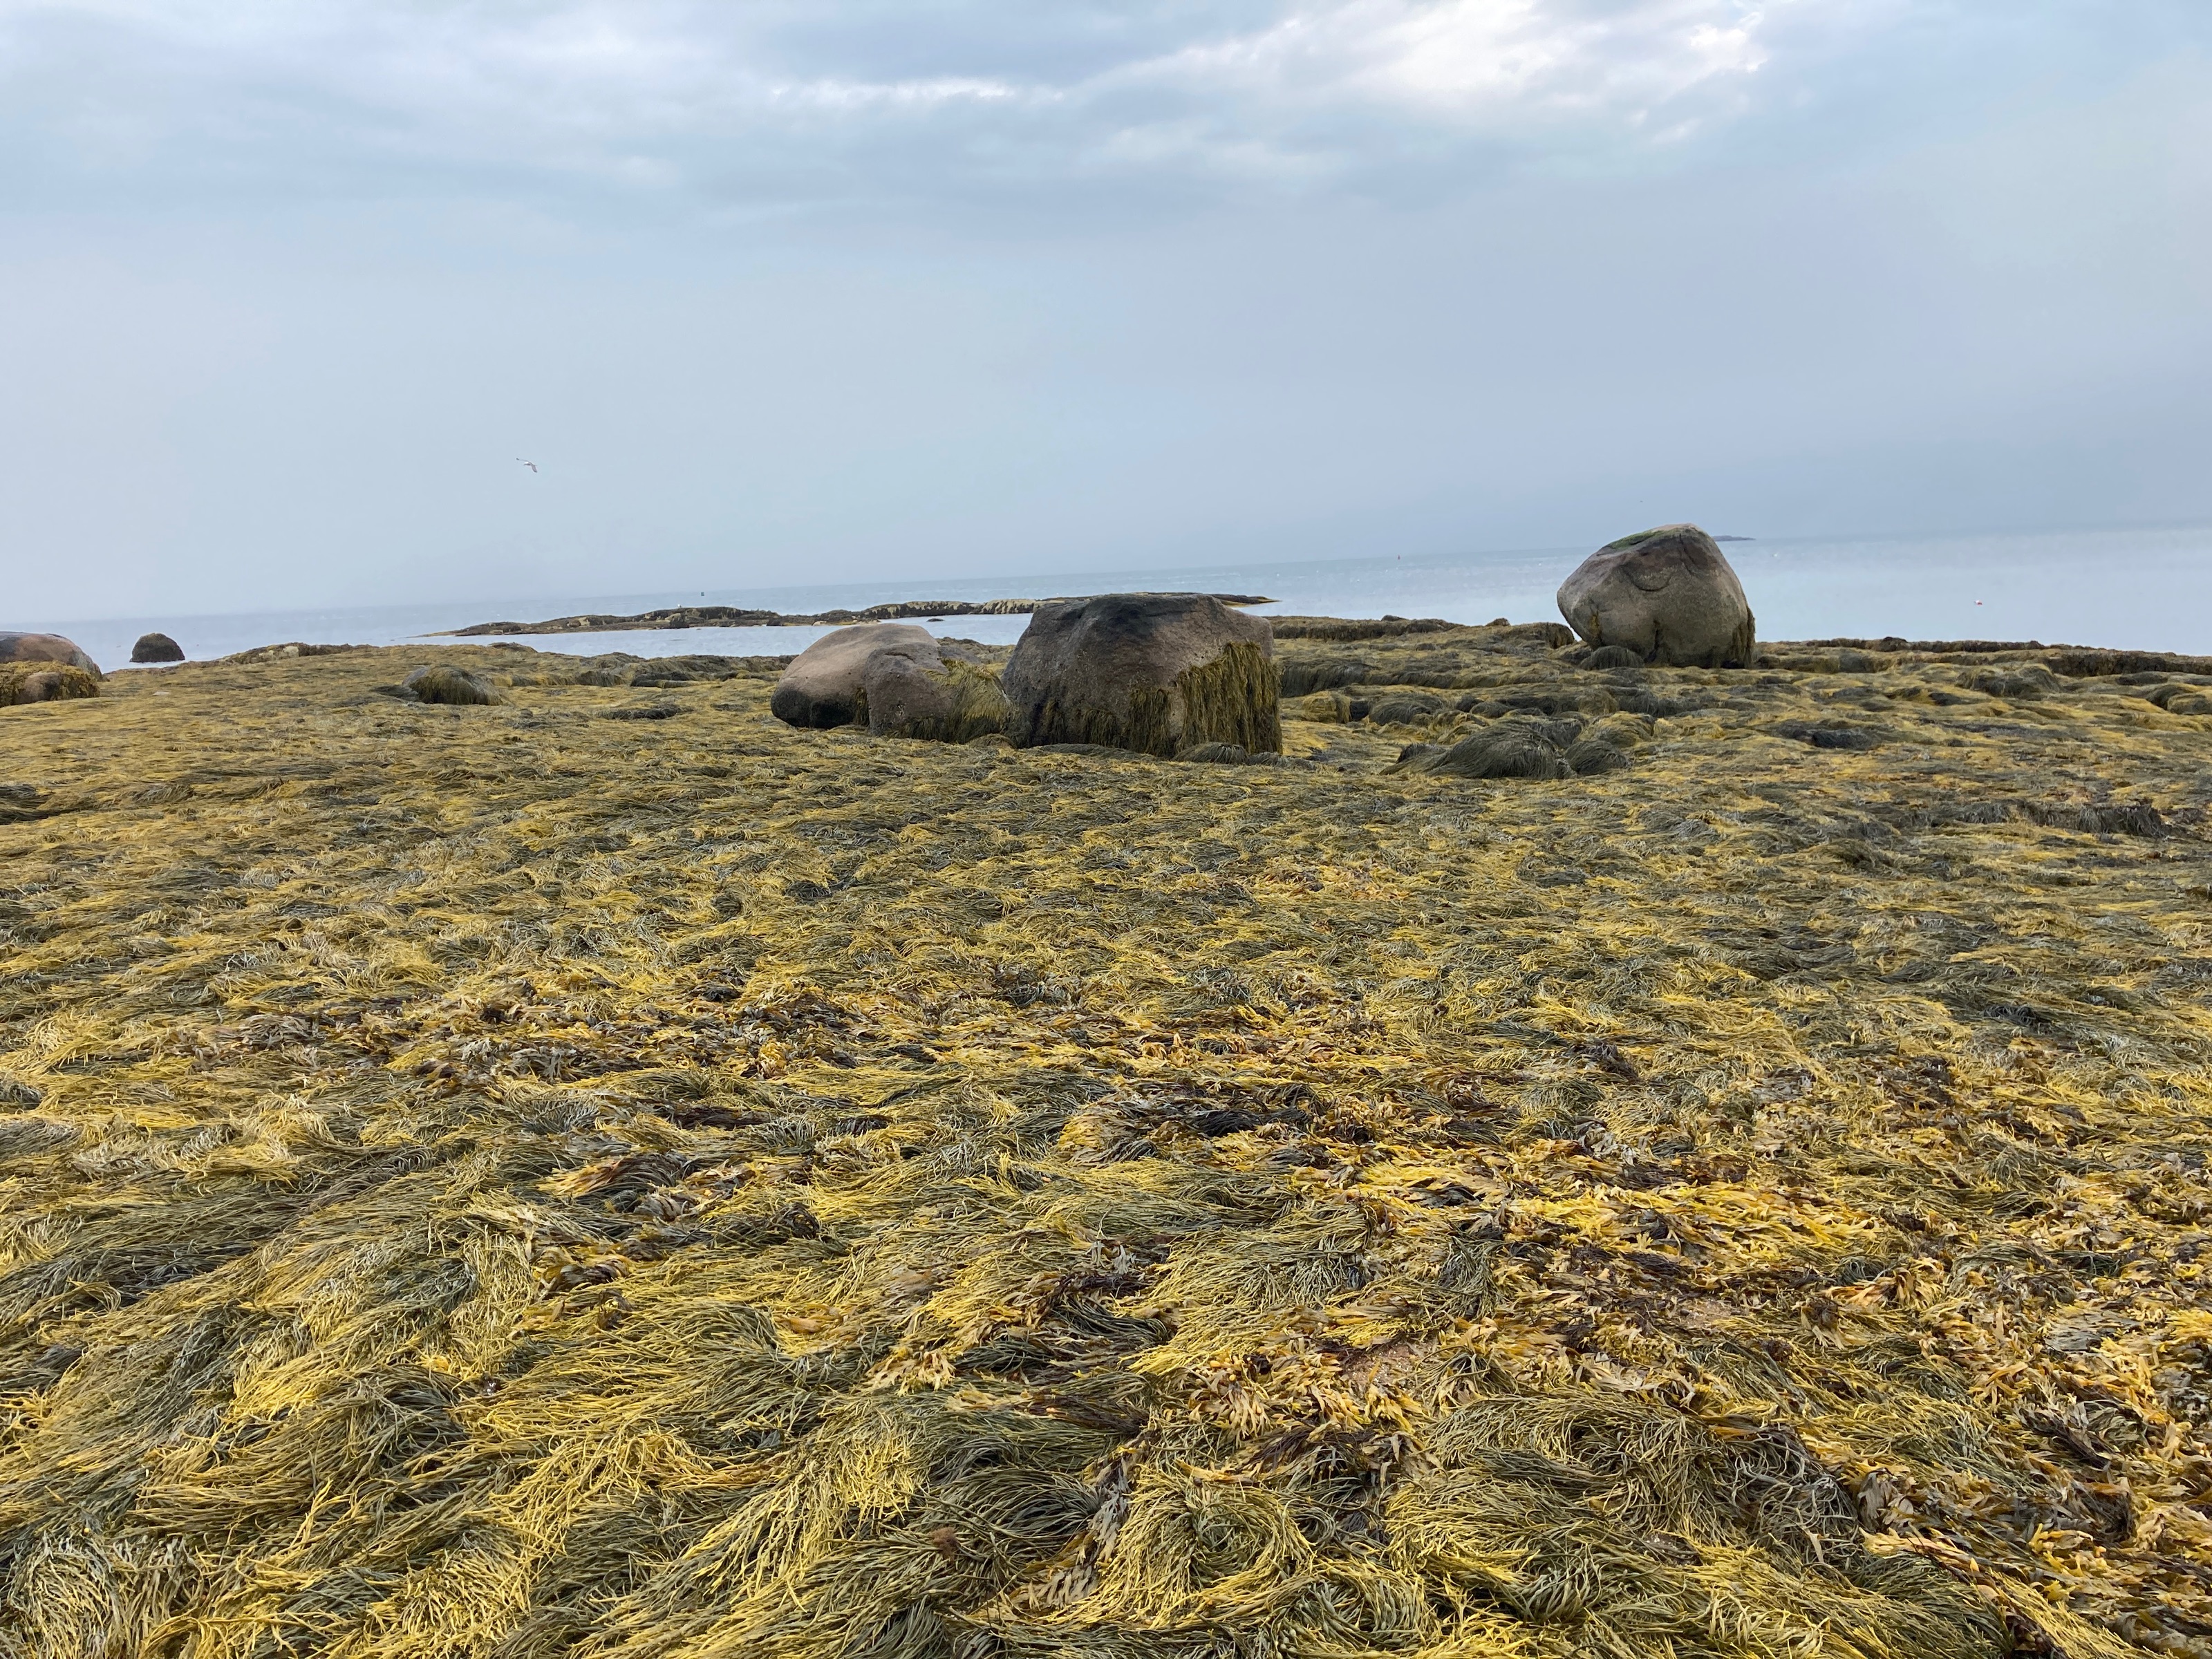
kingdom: Chromista
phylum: Ochrophyta
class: Phaeophyceae
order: Fucales
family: Fucaceae
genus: Ascophyllum
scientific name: Ascophyllum nodosum
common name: Rockweed
